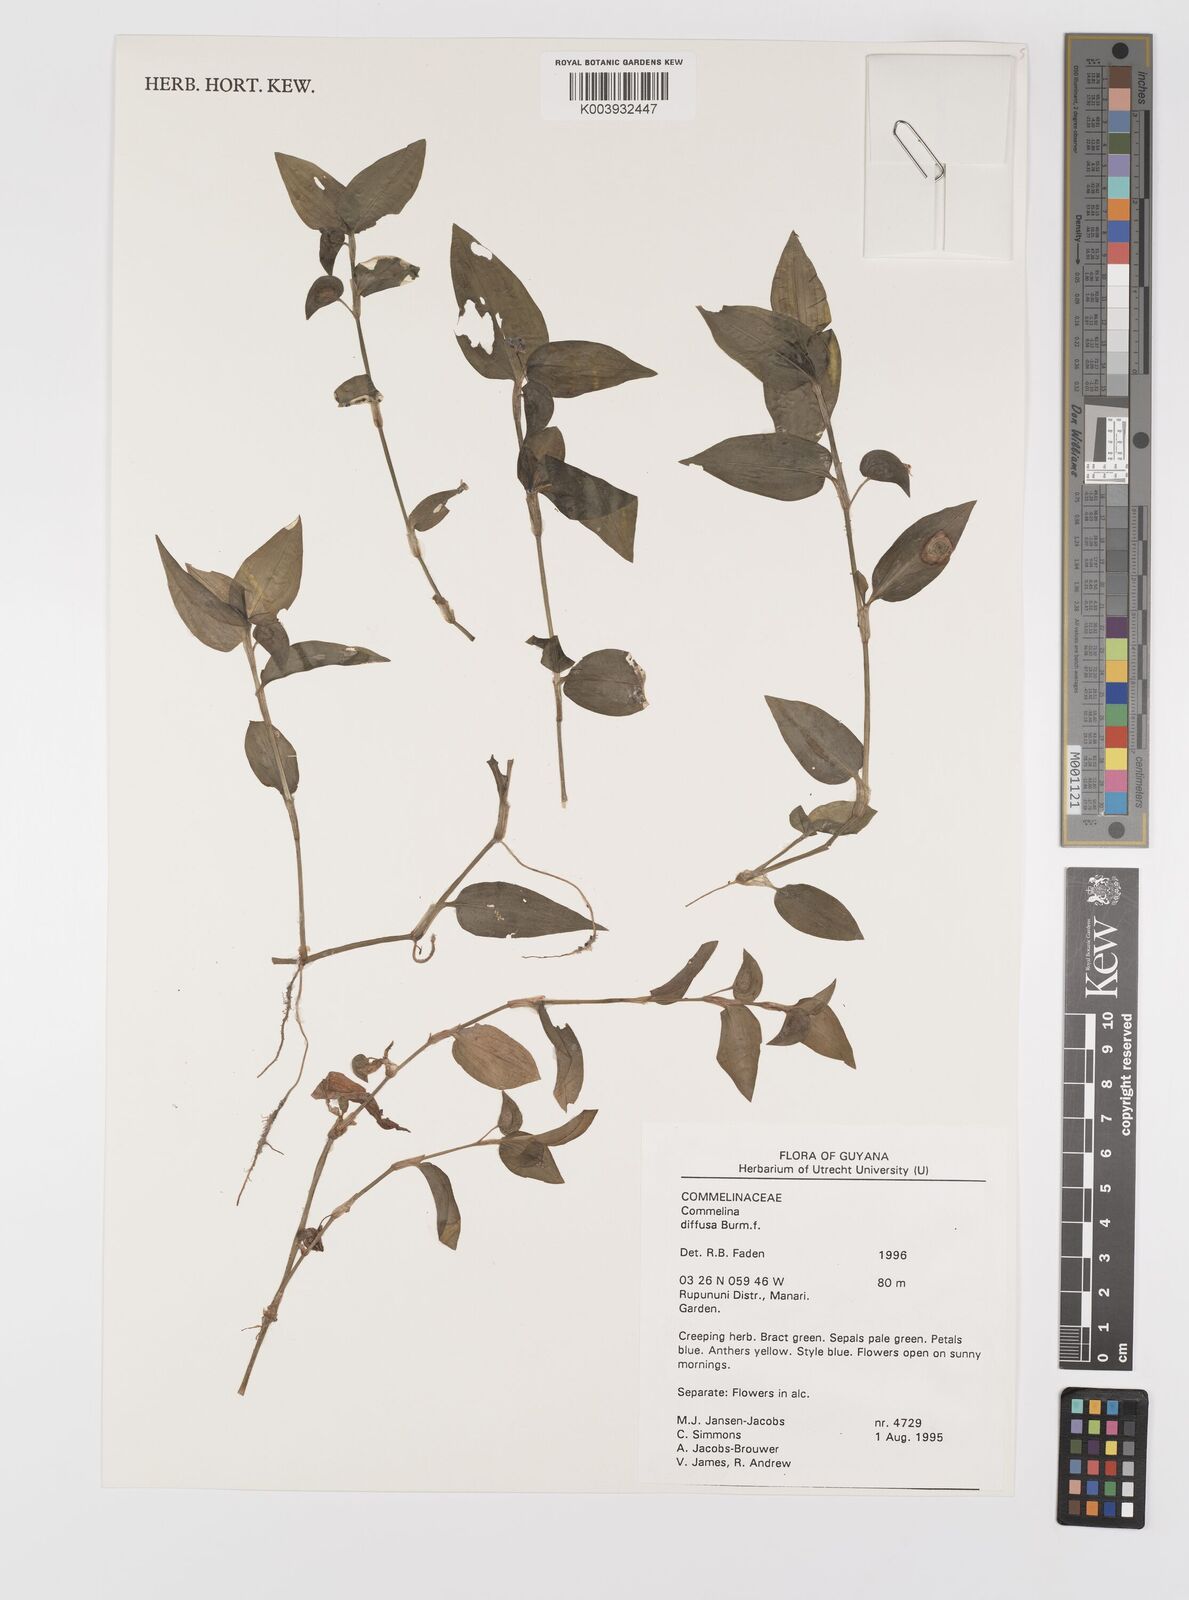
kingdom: Plantae
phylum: Tracheophyta
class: Liliopsida
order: Commelinales
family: Commelinaceae
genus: Commelina
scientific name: Commelina diffusa
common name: Climbing dayflower
